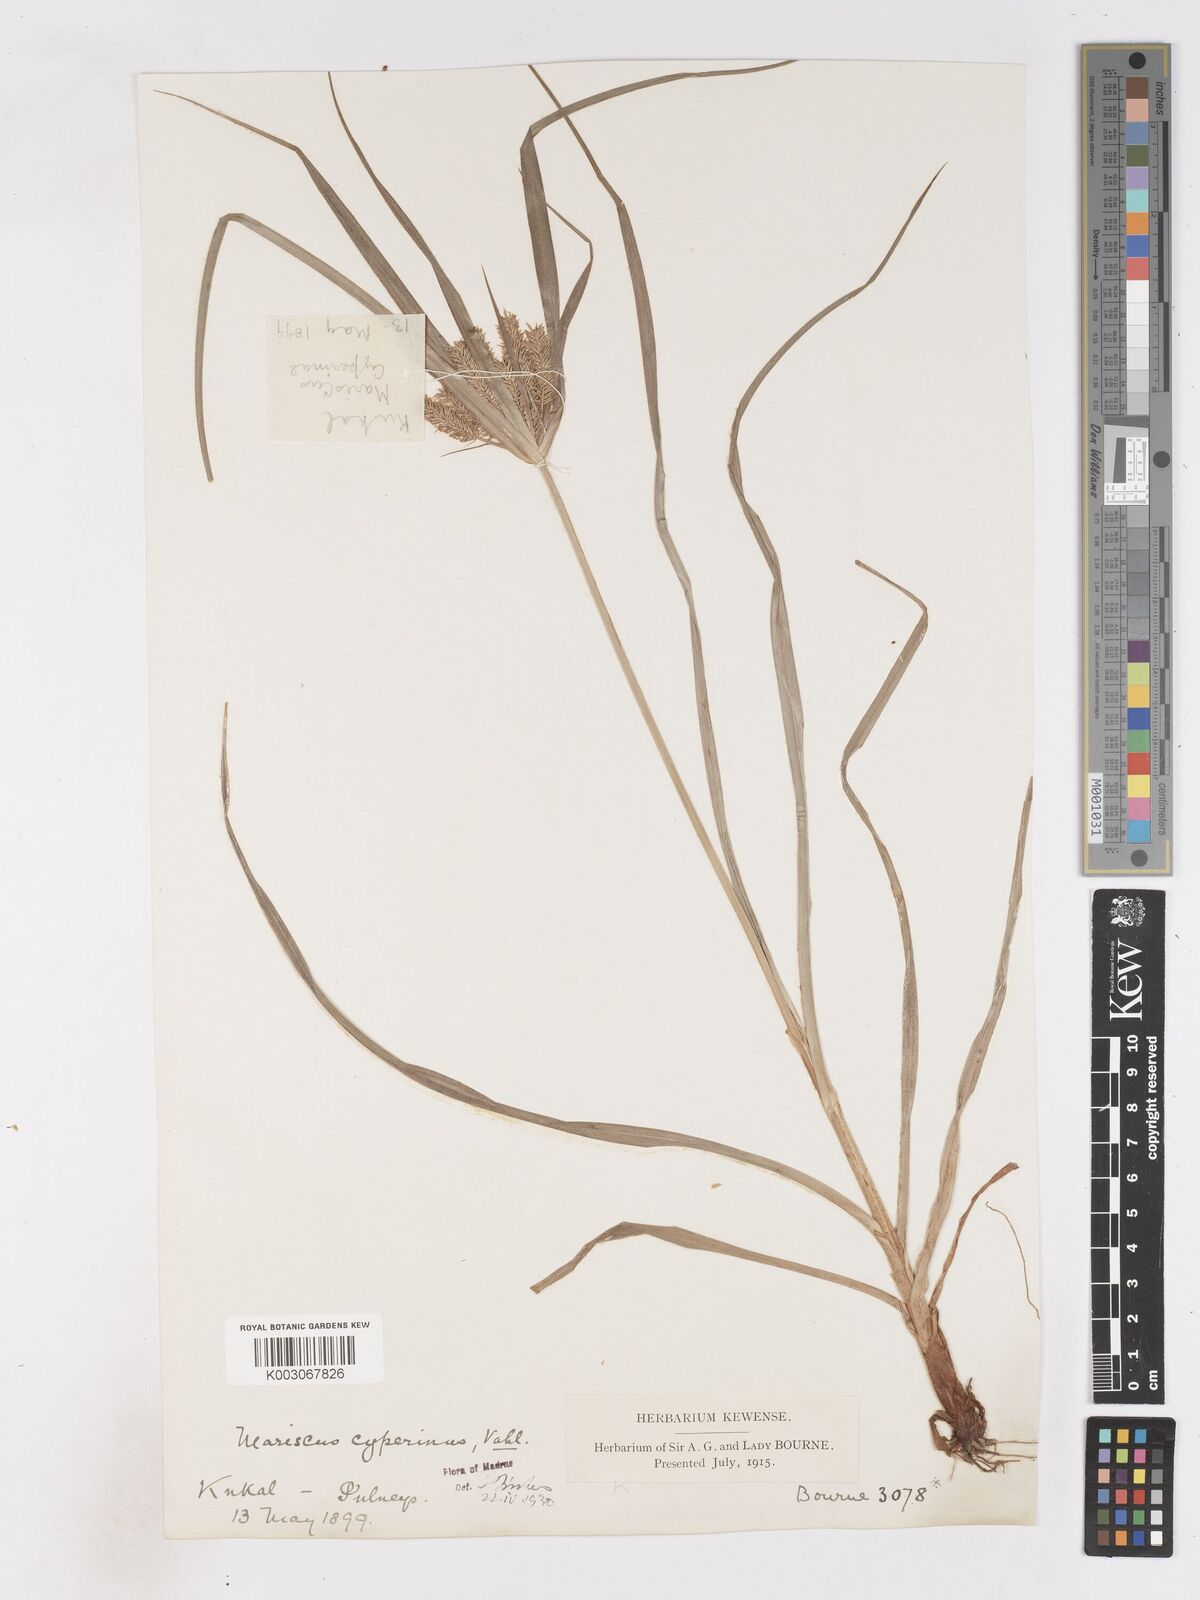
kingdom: Plantae
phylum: Tracheophyta
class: Liliopsida
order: Poales
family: Cyperaceae
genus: Cyperus
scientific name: Cyperus cyperoides
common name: Pacific island flat sedge
